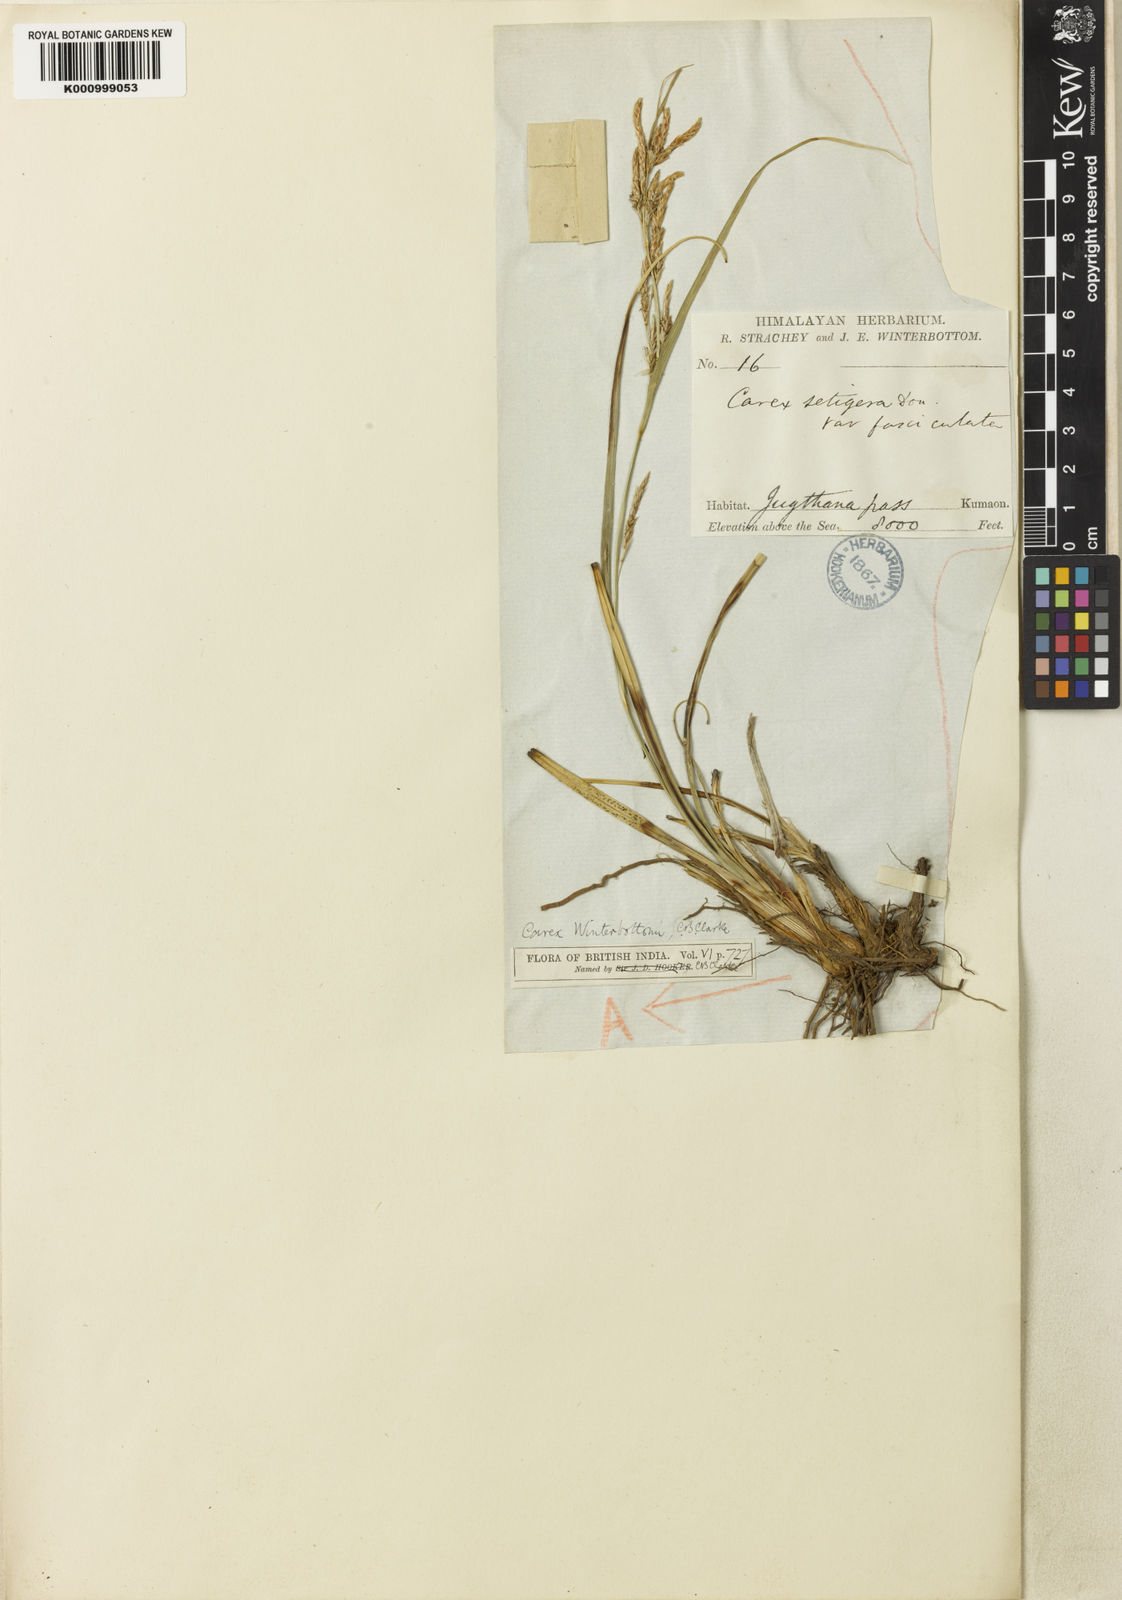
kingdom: Plantae
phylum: Tracheophyta
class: Liliopsida
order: Poales
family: Cyperaceae
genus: Carex
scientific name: Carex winterbottomii
